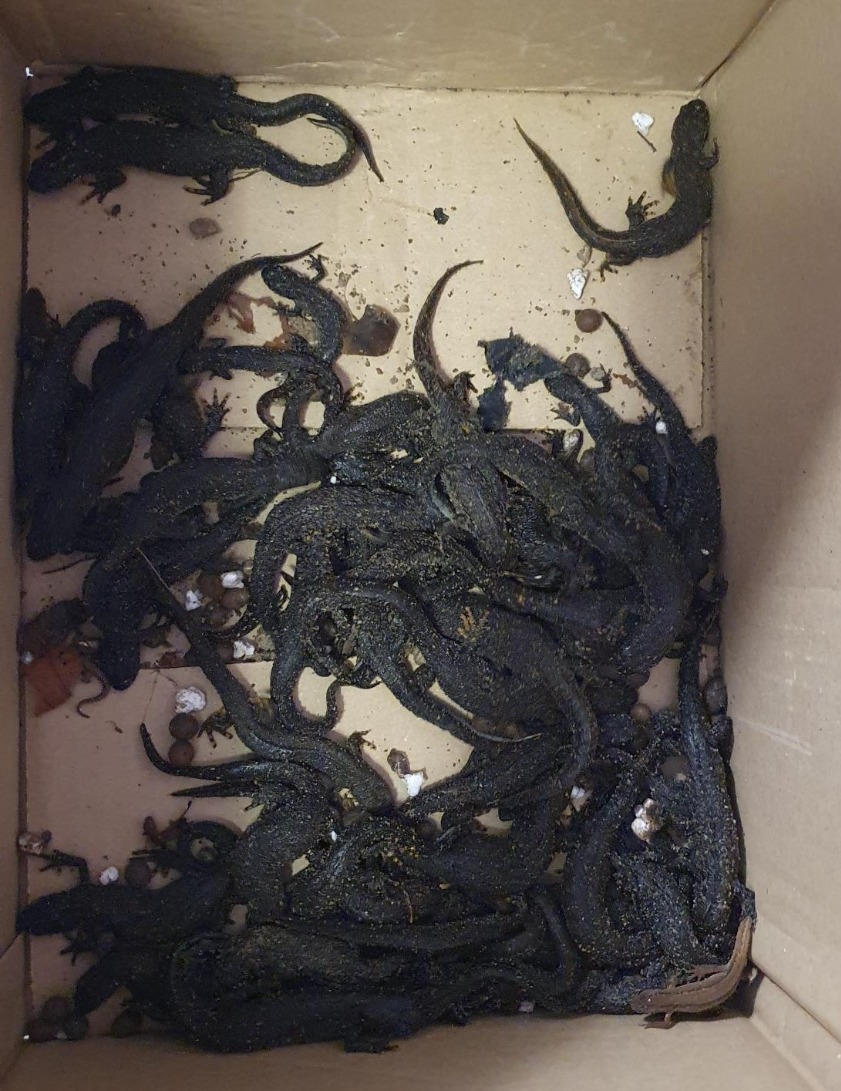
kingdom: Animalia
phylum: Chordata
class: Amphibia
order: Caudata
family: Salamandridae
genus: Triturus
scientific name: Triturus cristatus
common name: Stor vandsalamander
